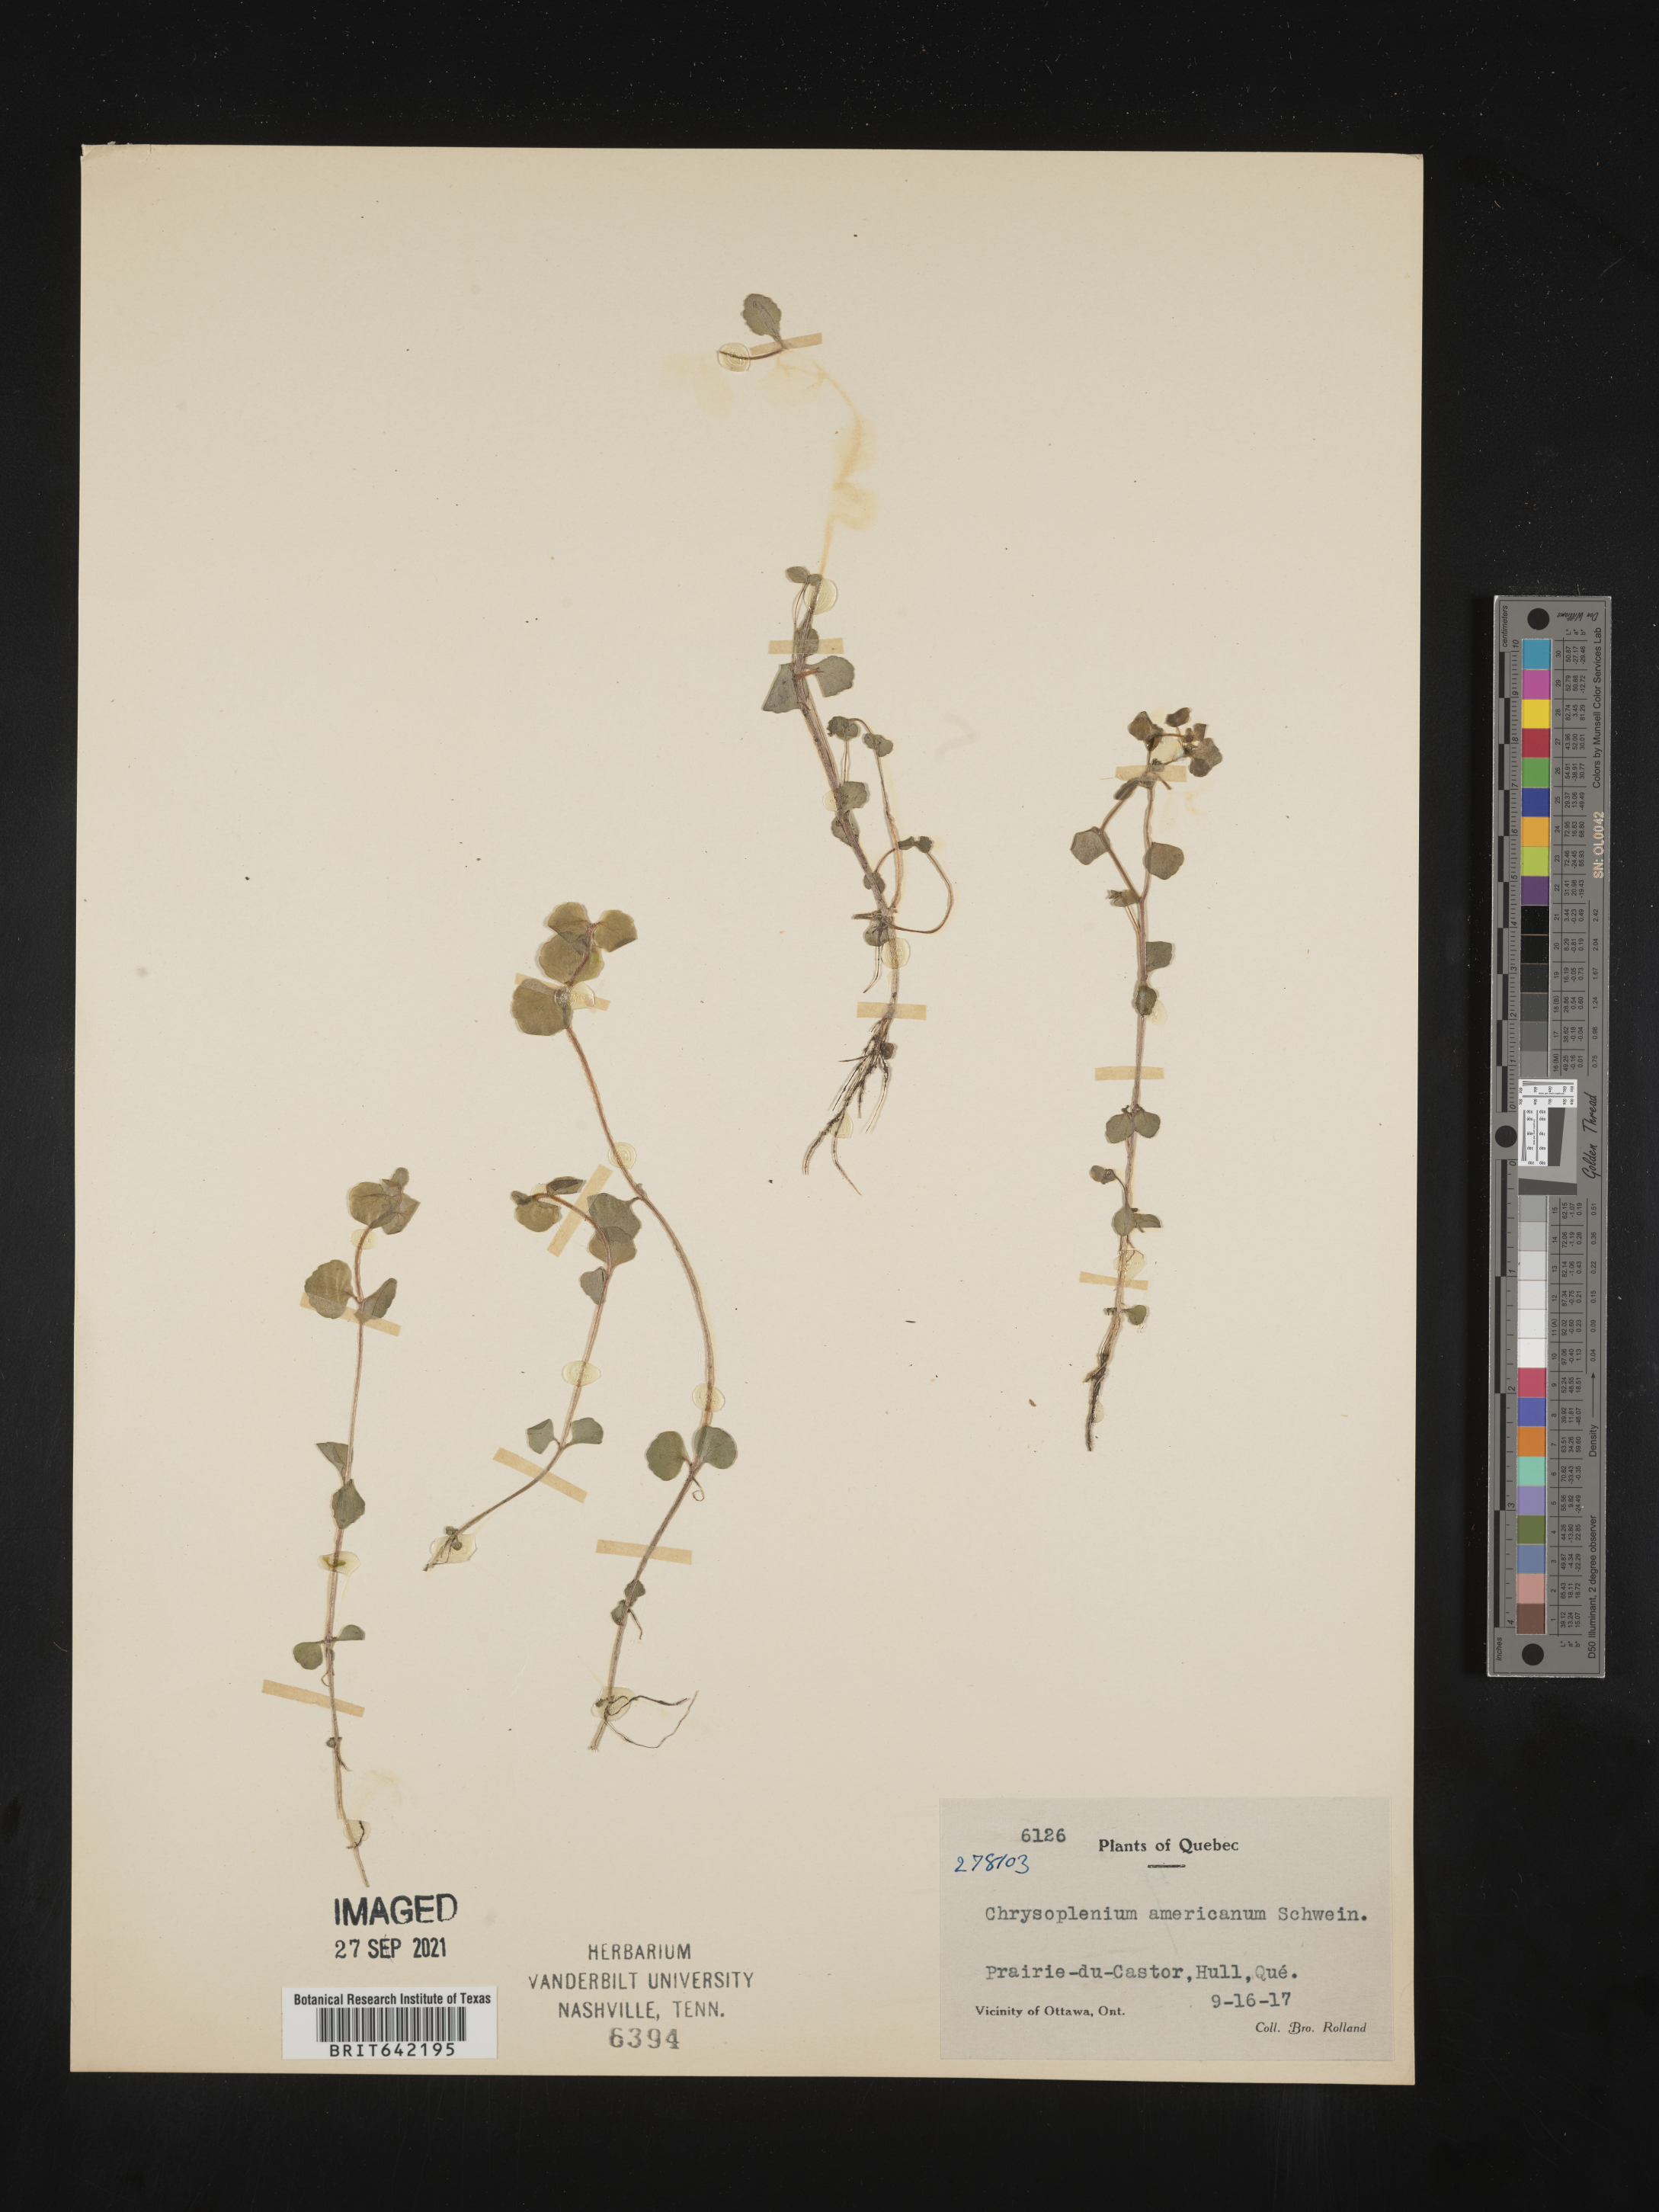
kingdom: Plantae
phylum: Tracheophyta
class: Magnoliopsida
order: Saxifragales
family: Saxifragaceae
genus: Chrysosplenium
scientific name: Chrysosplenium
